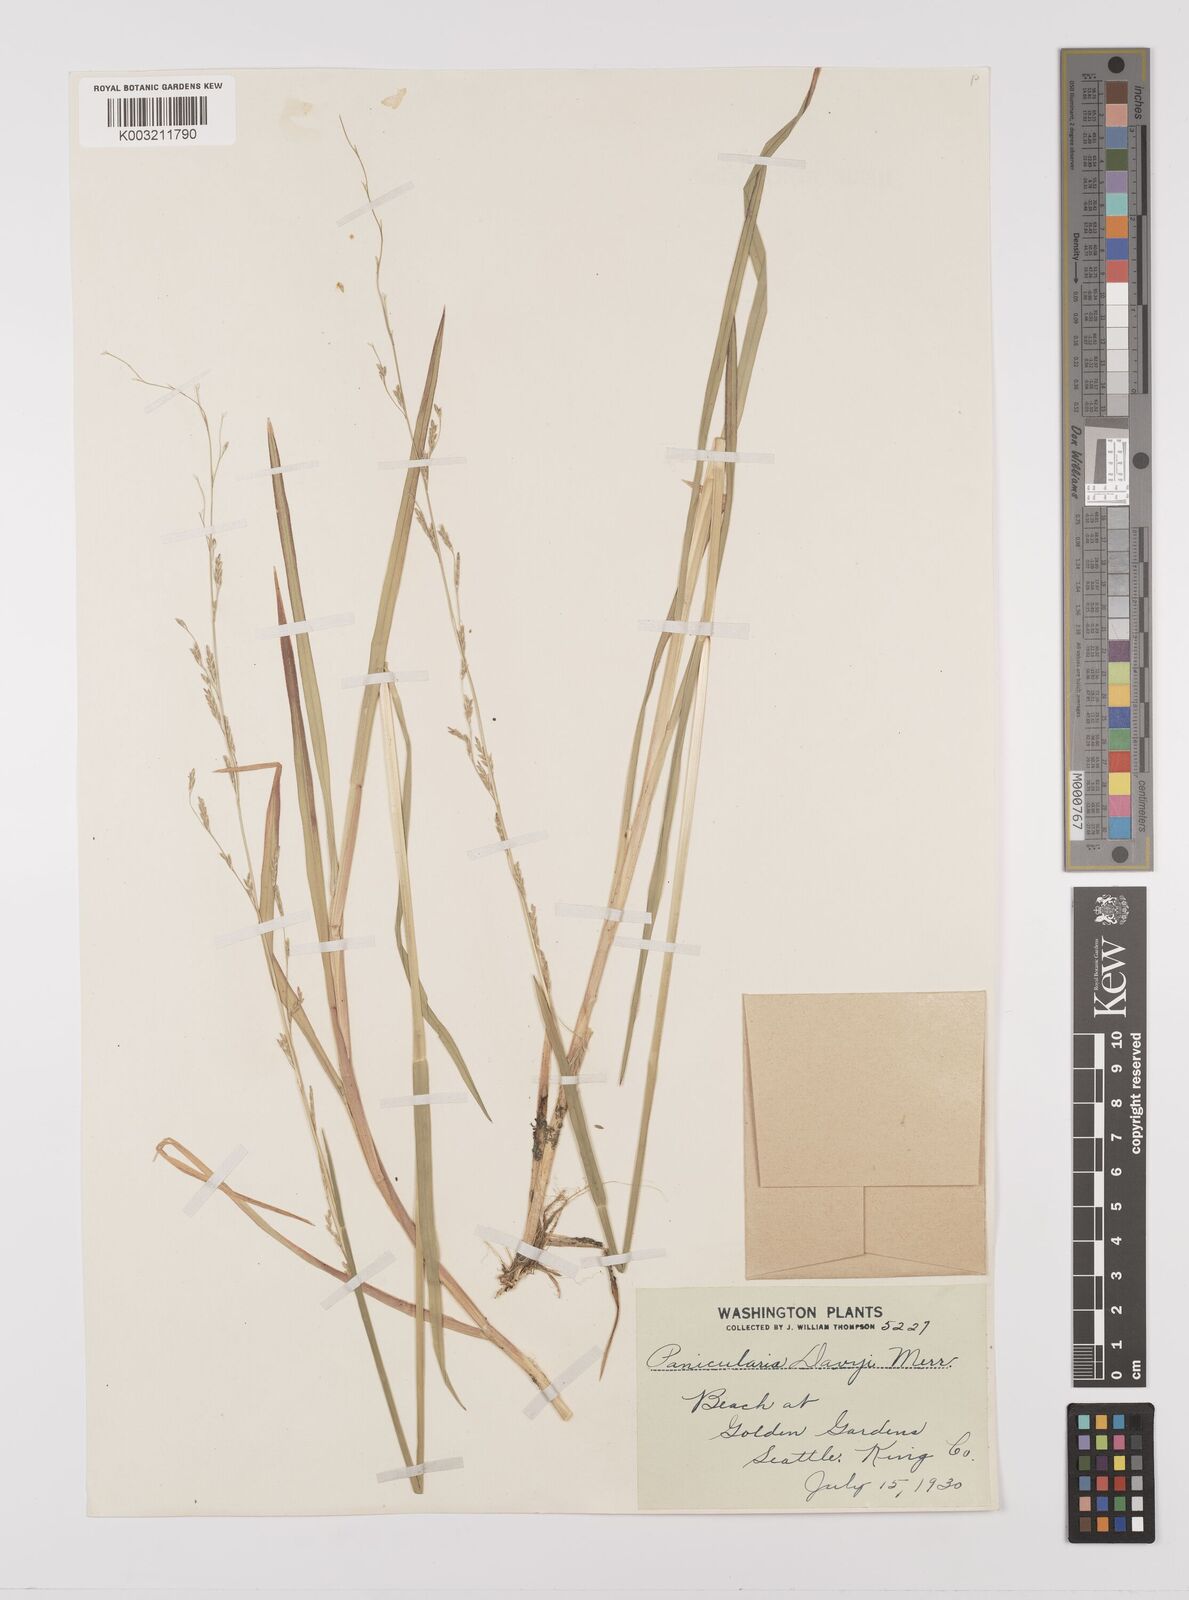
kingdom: Plantae
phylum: Tracheophyta
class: Liliopsida
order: Poales
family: Poaceae
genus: Glyceria
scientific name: Glyceria leptostachya
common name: Davy's mannagrass
